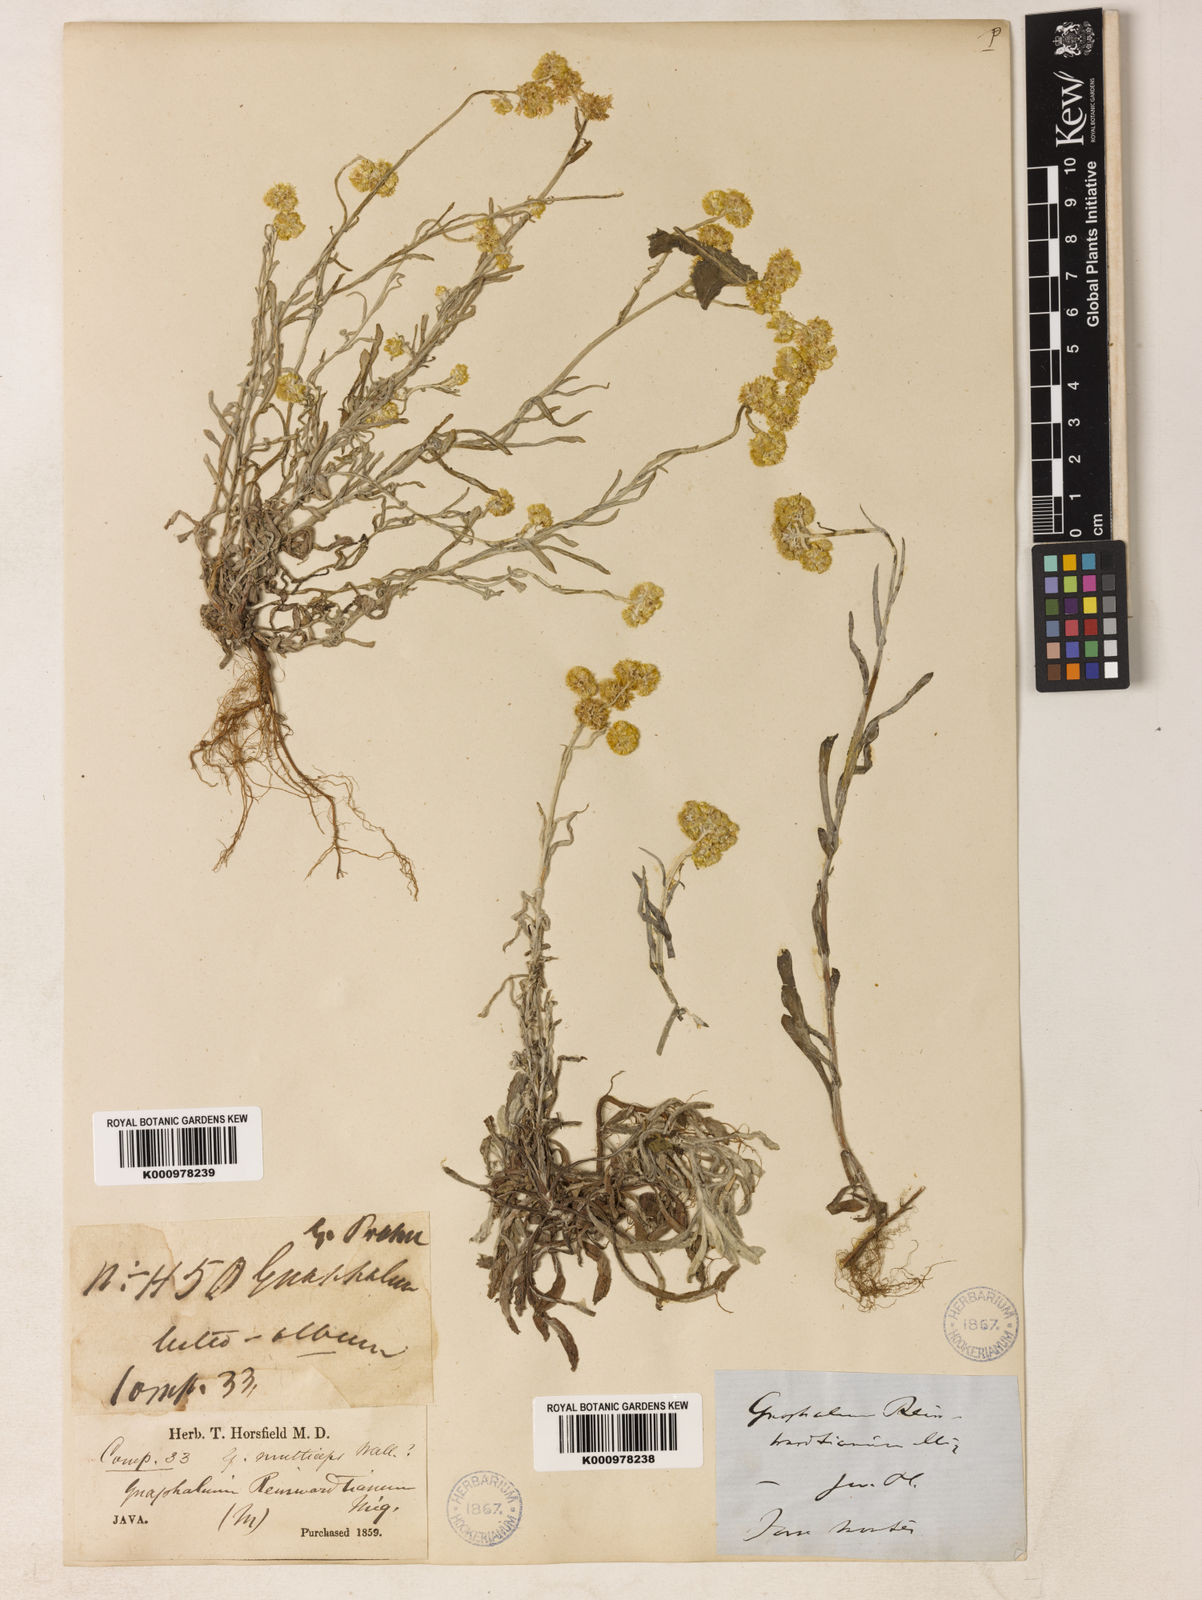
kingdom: Plantae
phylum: Tracheophyta
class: Magnoliopsida
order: Asterales
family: Asteraceae
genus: Helichrysum
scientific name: Helichrysum luteoalbum
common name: Daisy
